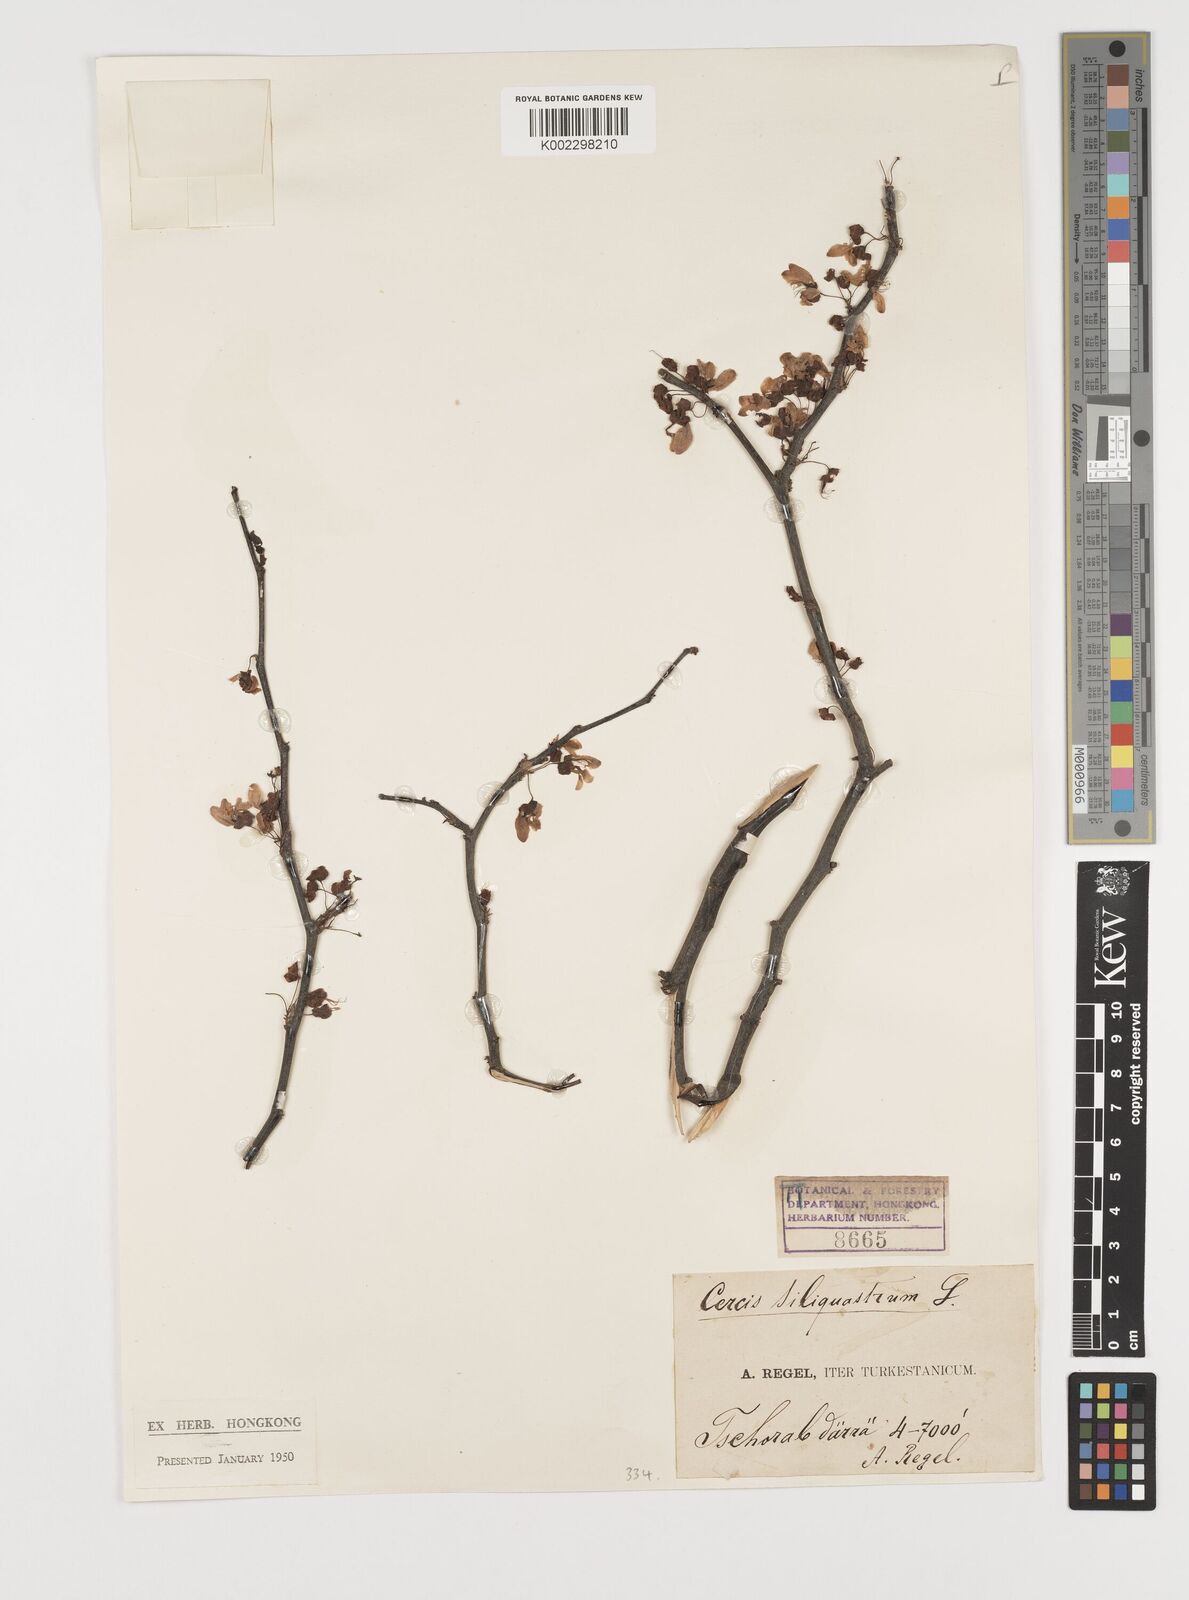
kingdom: Plantae
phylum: Tracheophyta
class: Magnoliopsida
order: Fabales
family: Fabaceae
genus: Cercis
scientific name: Cercis
